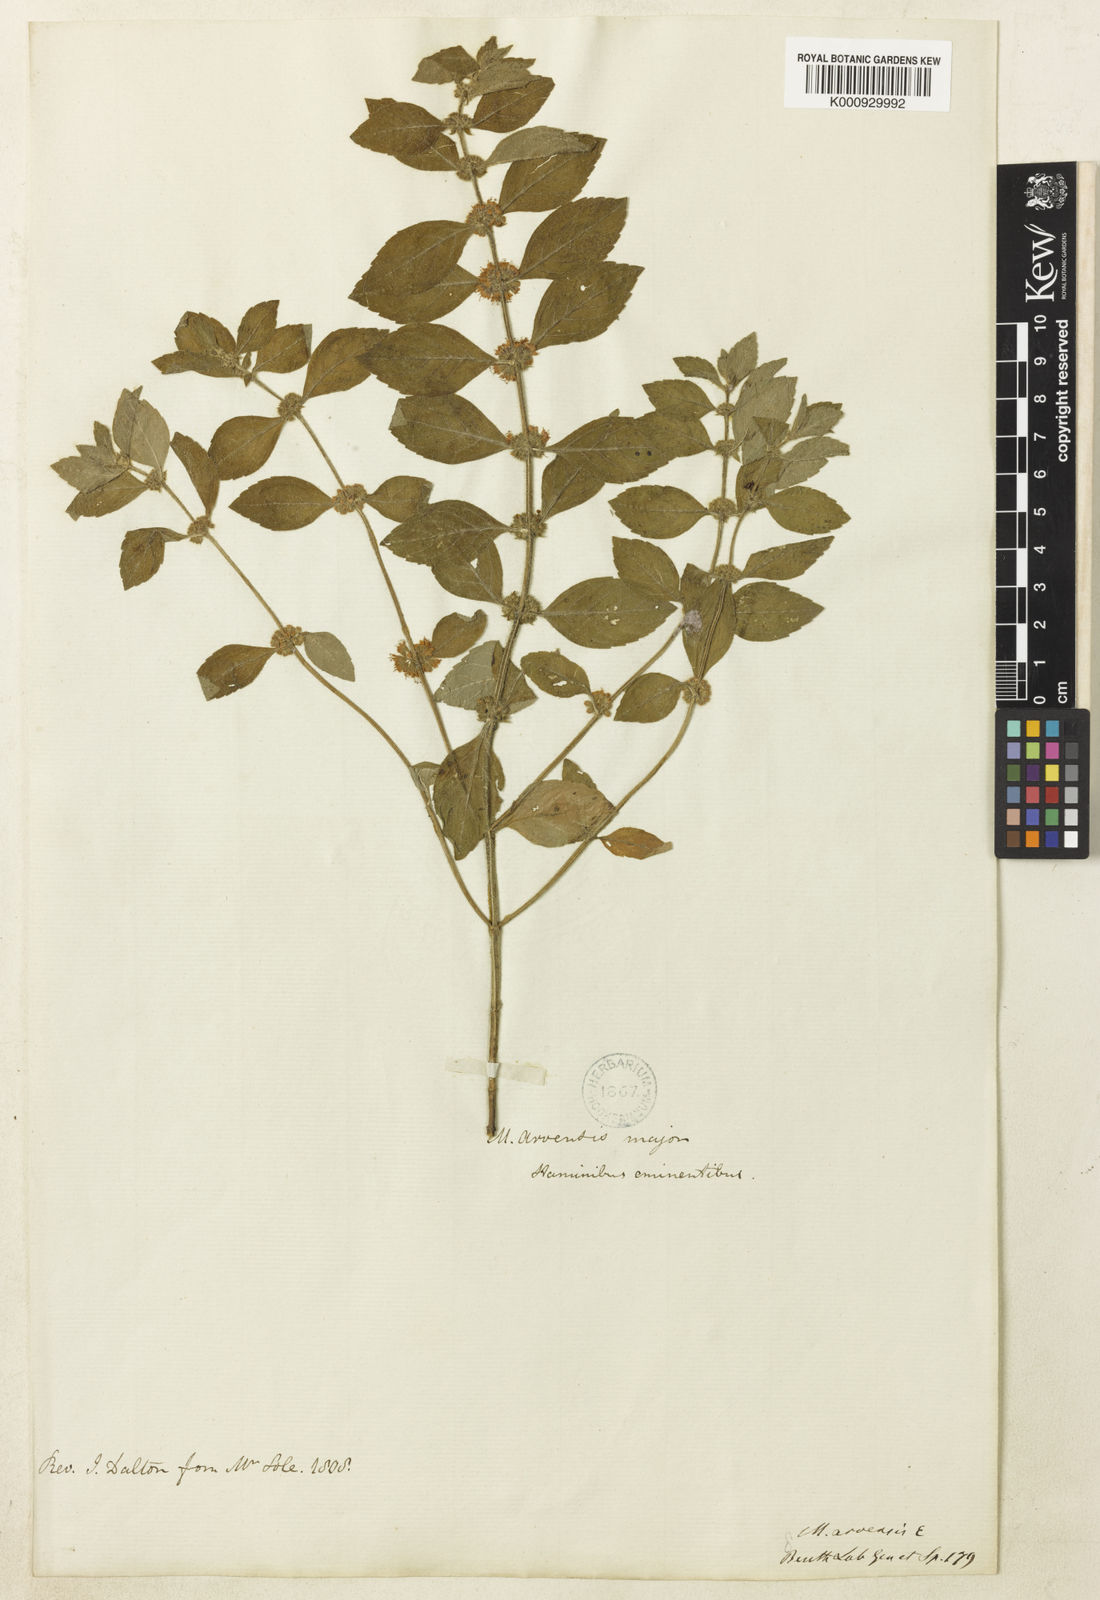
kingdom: Plantae
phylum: Tracheophyta
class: Magnoliopsida
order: Lamiales
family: Lamiaceae
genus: Mentha
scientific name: Mentha
